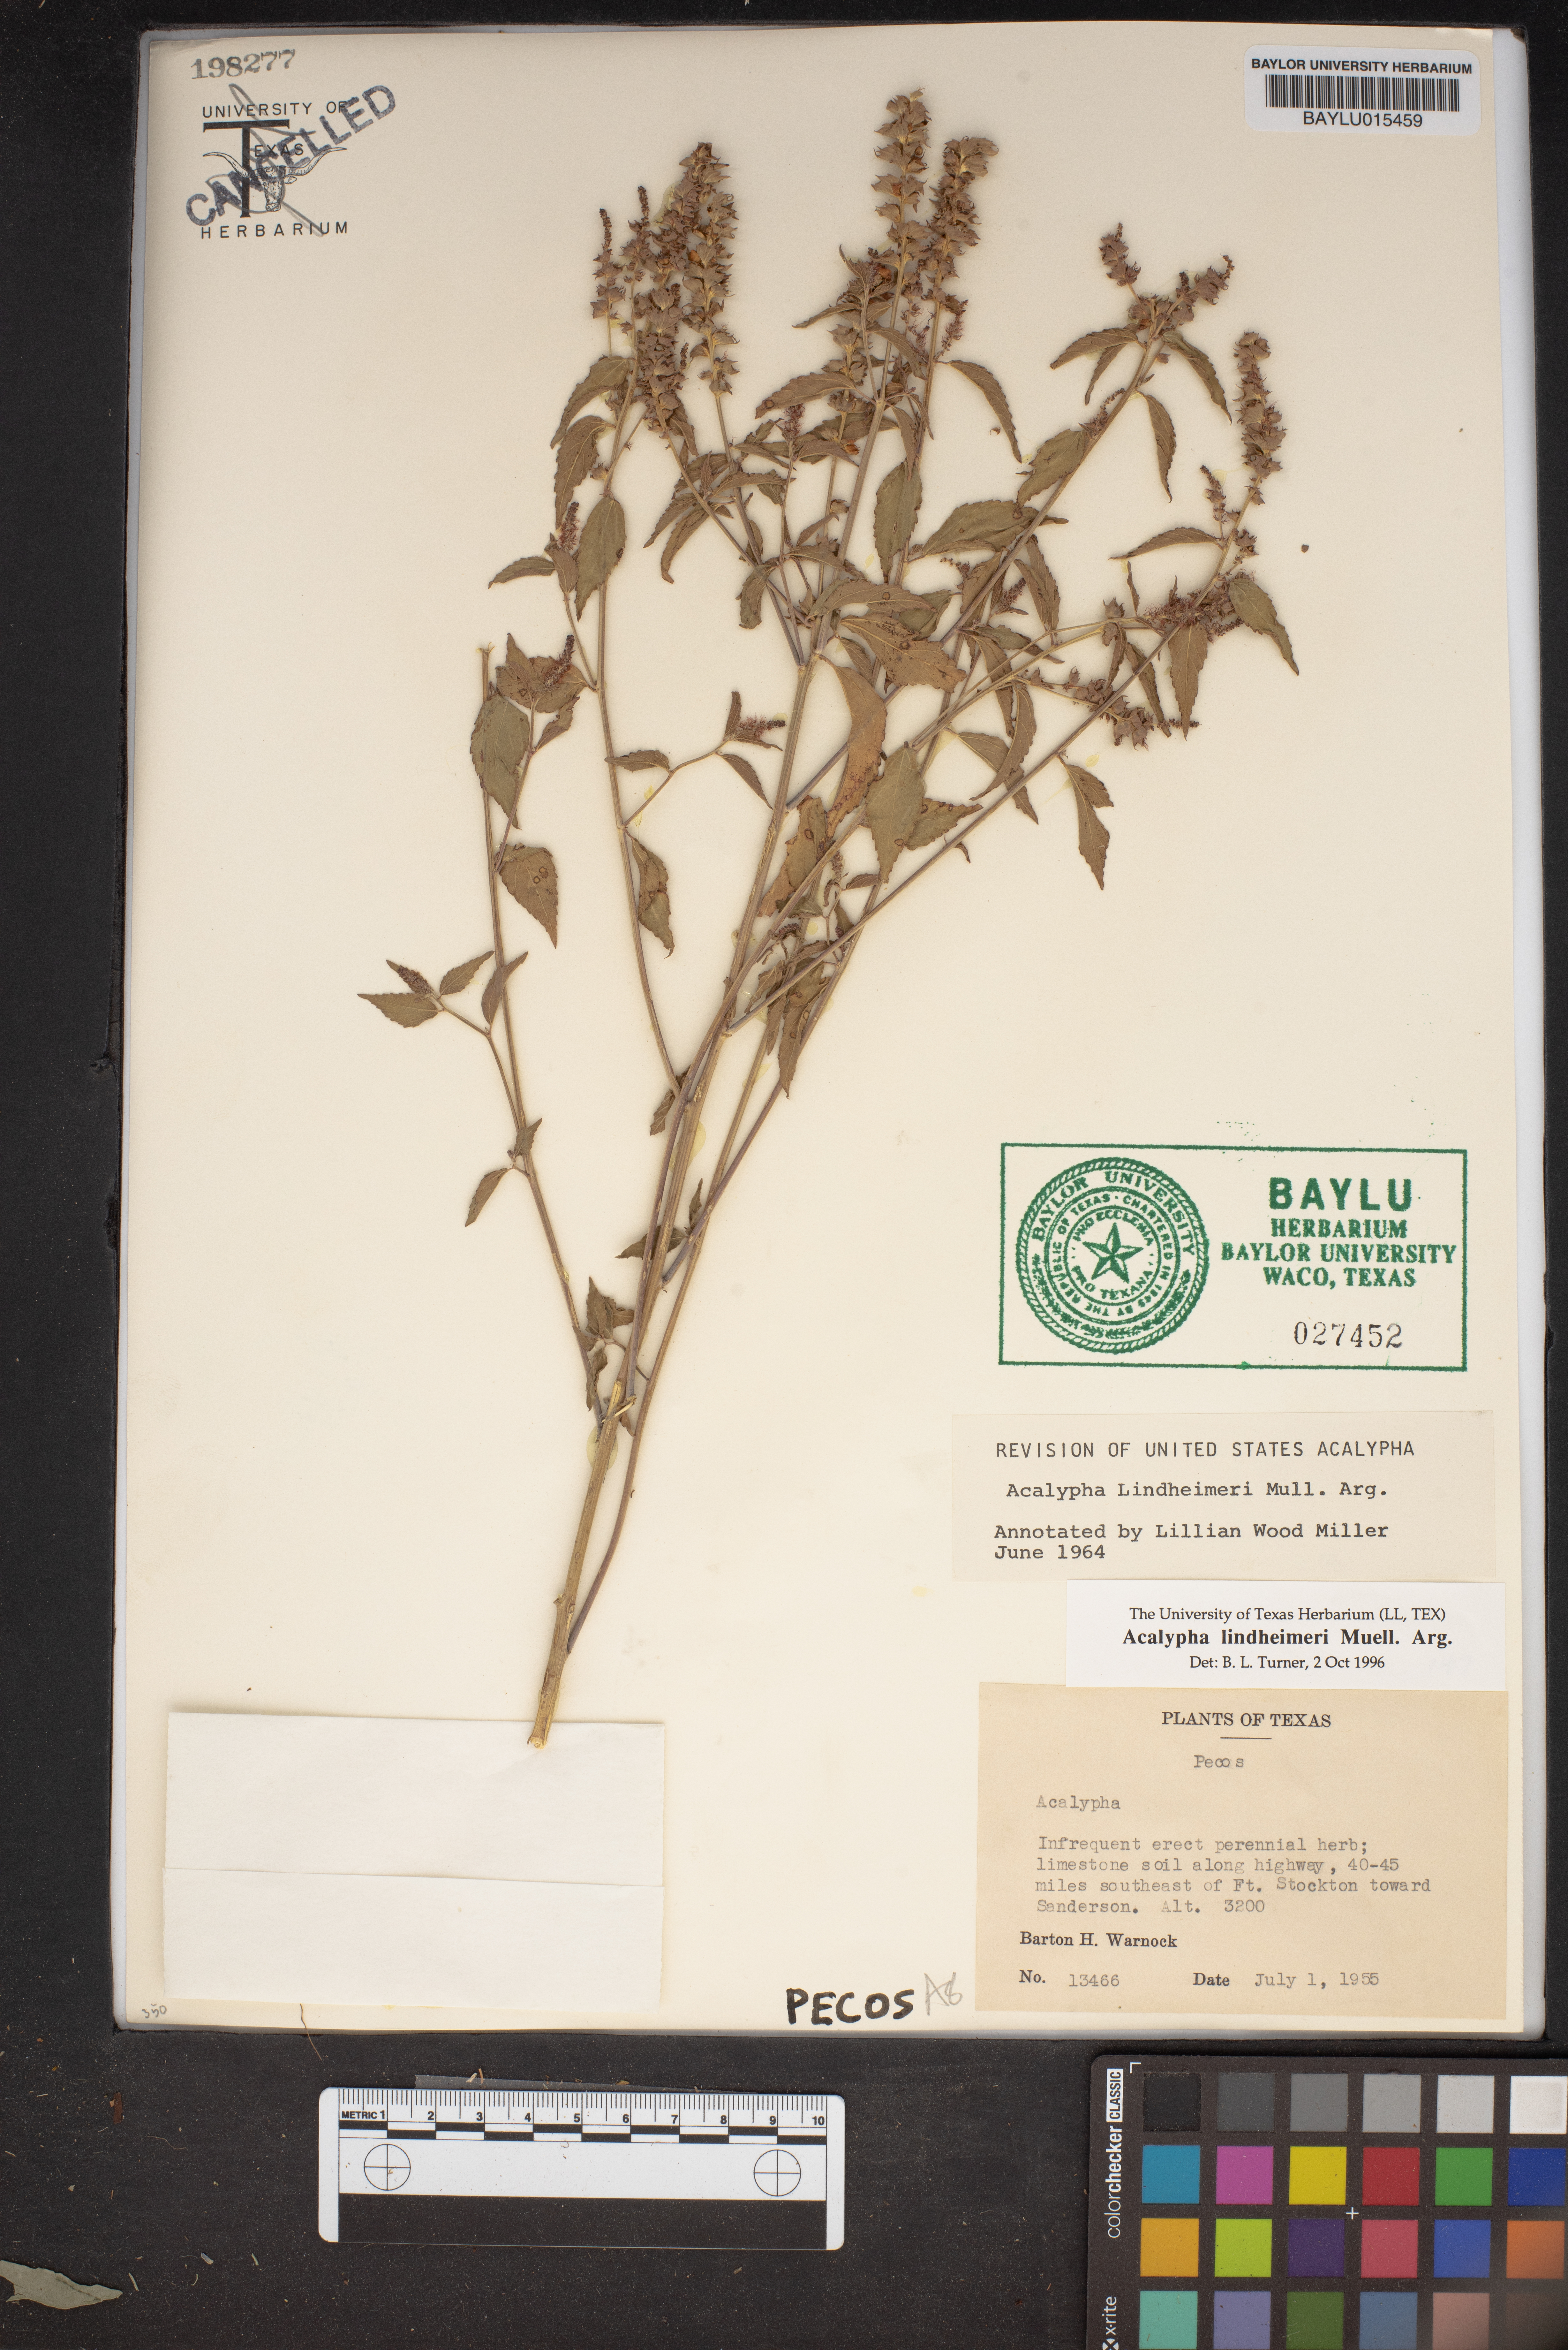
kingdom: Plantae
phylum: Tracheophyta
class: Magnoliopsida
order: Malpighiales
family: Euphorbiaceae
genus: Acalypha
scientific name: Acalypha phleoides
